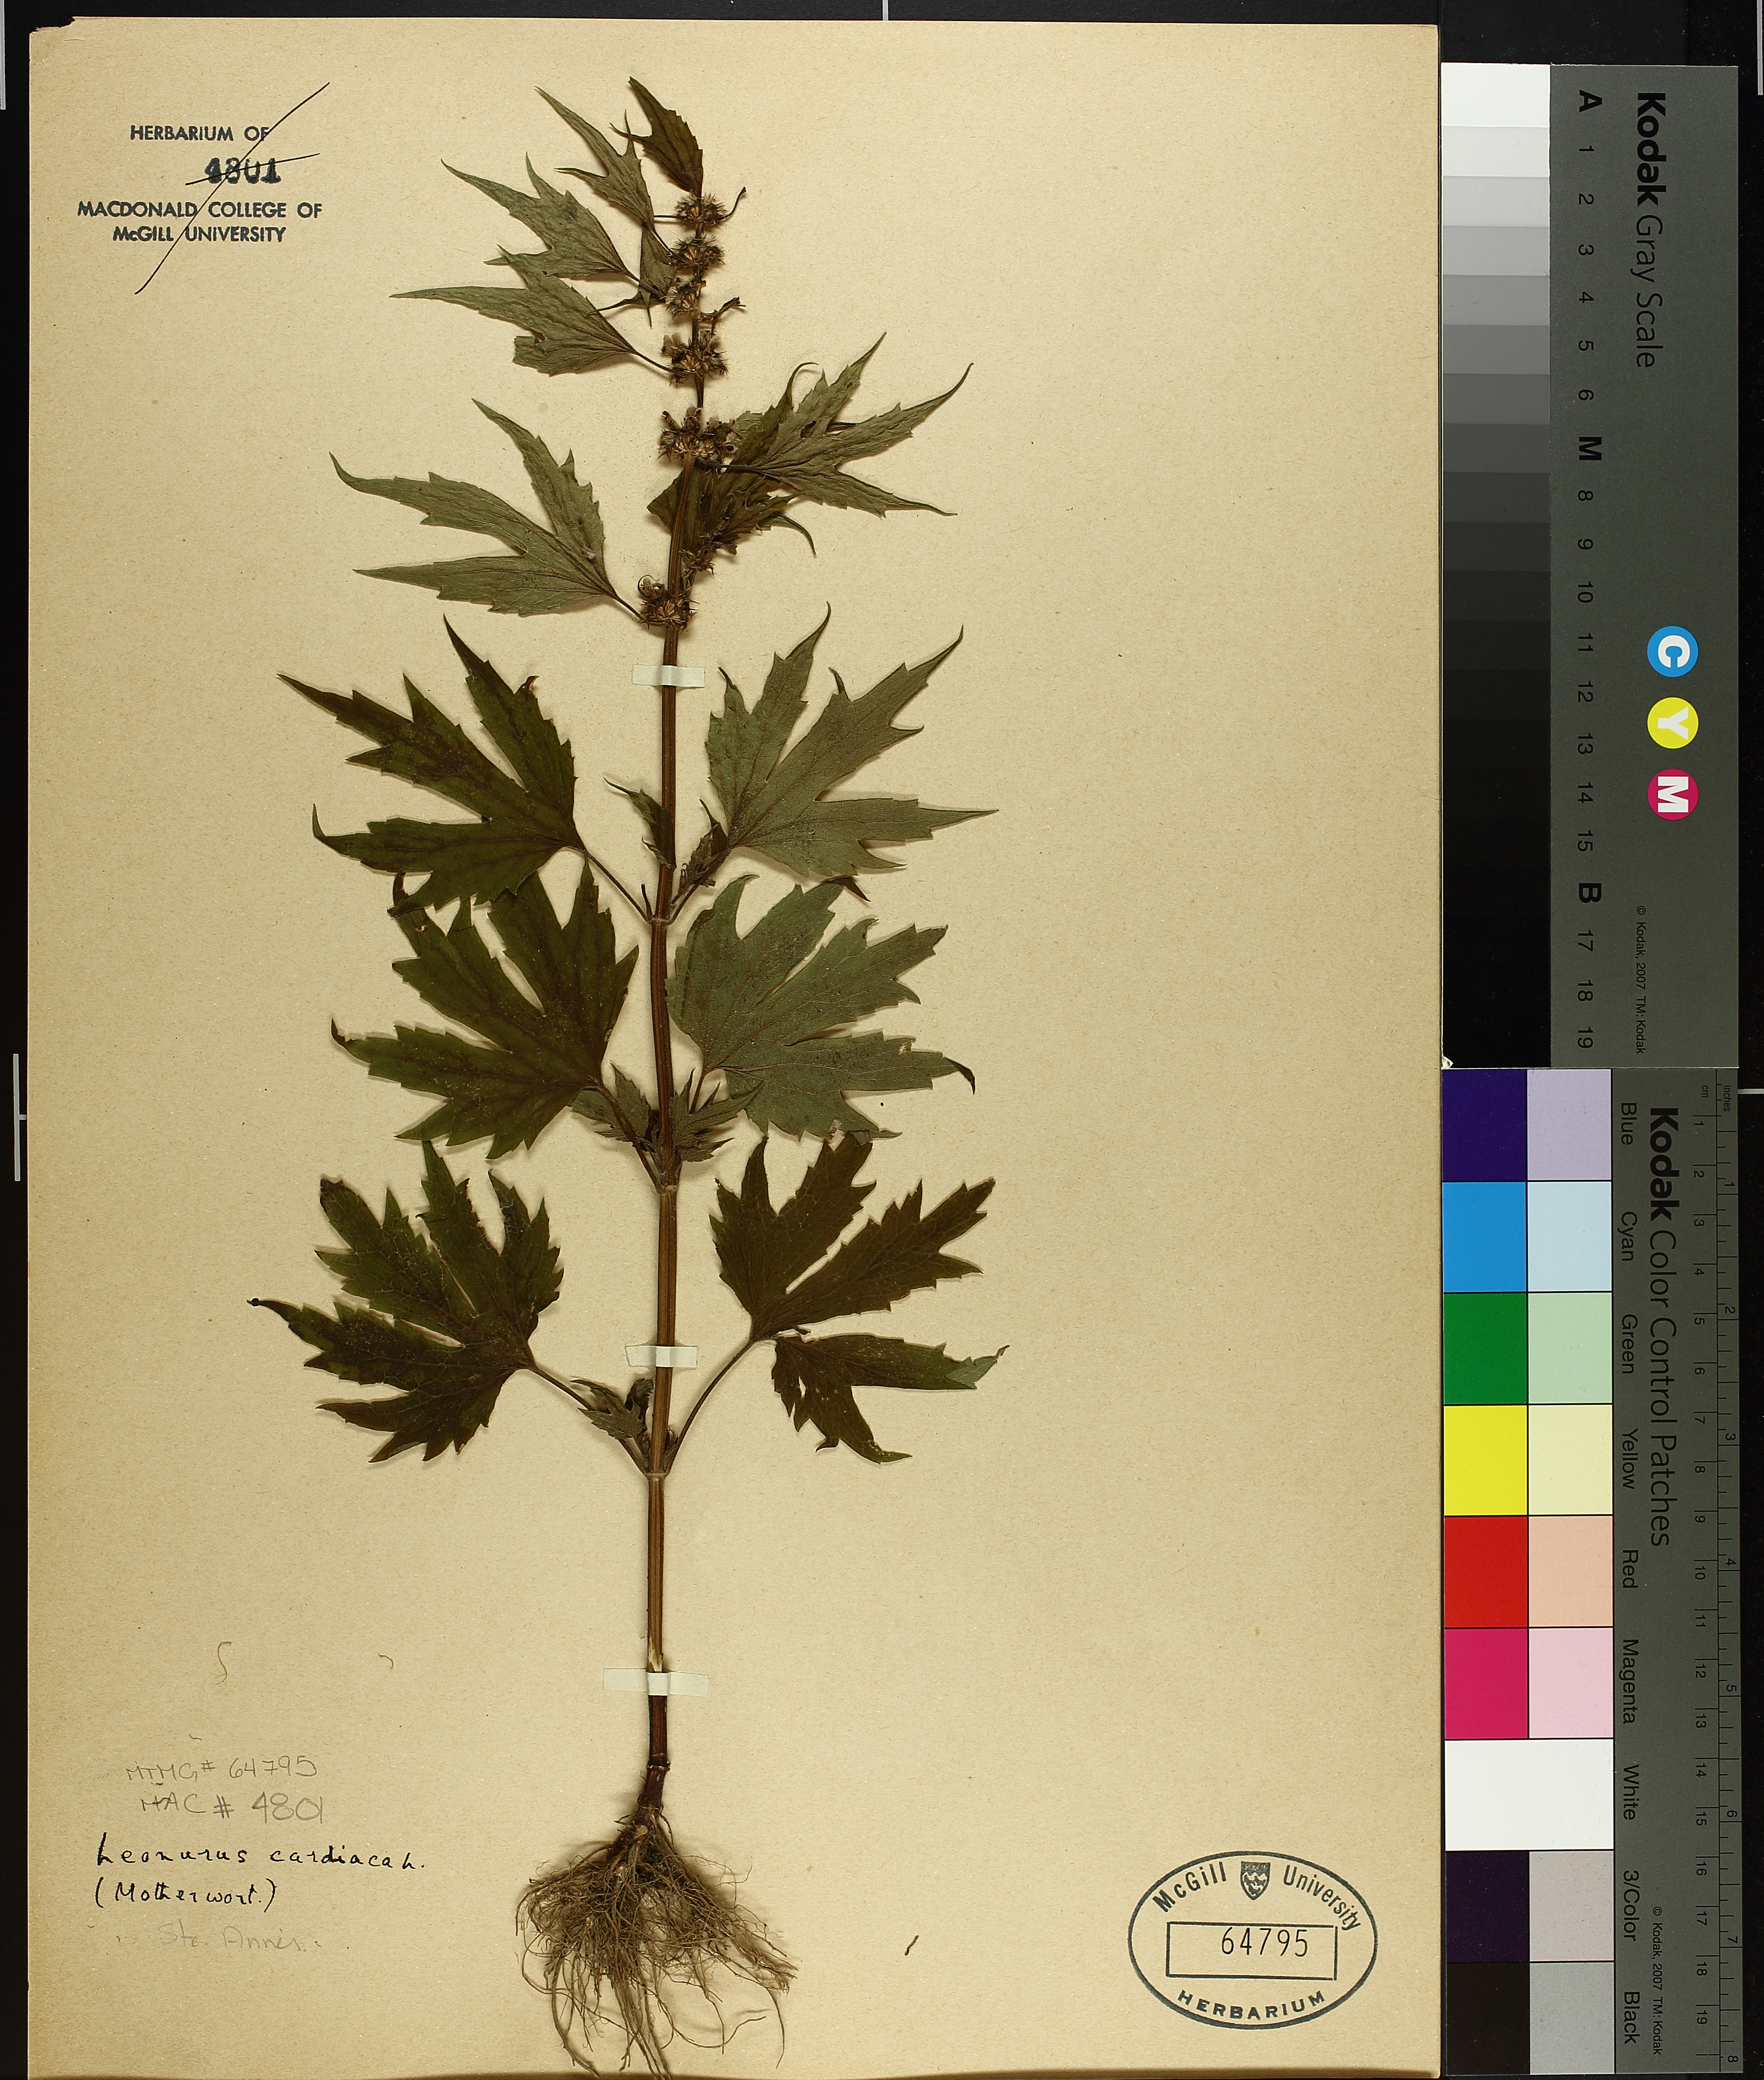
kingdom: Plantae
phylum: Tracheophyta
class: Magnoliopsida
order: Lamiales
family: Lamiaceae
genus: Leonurus
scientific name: Leonurus cardiaca
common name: Motherwort
